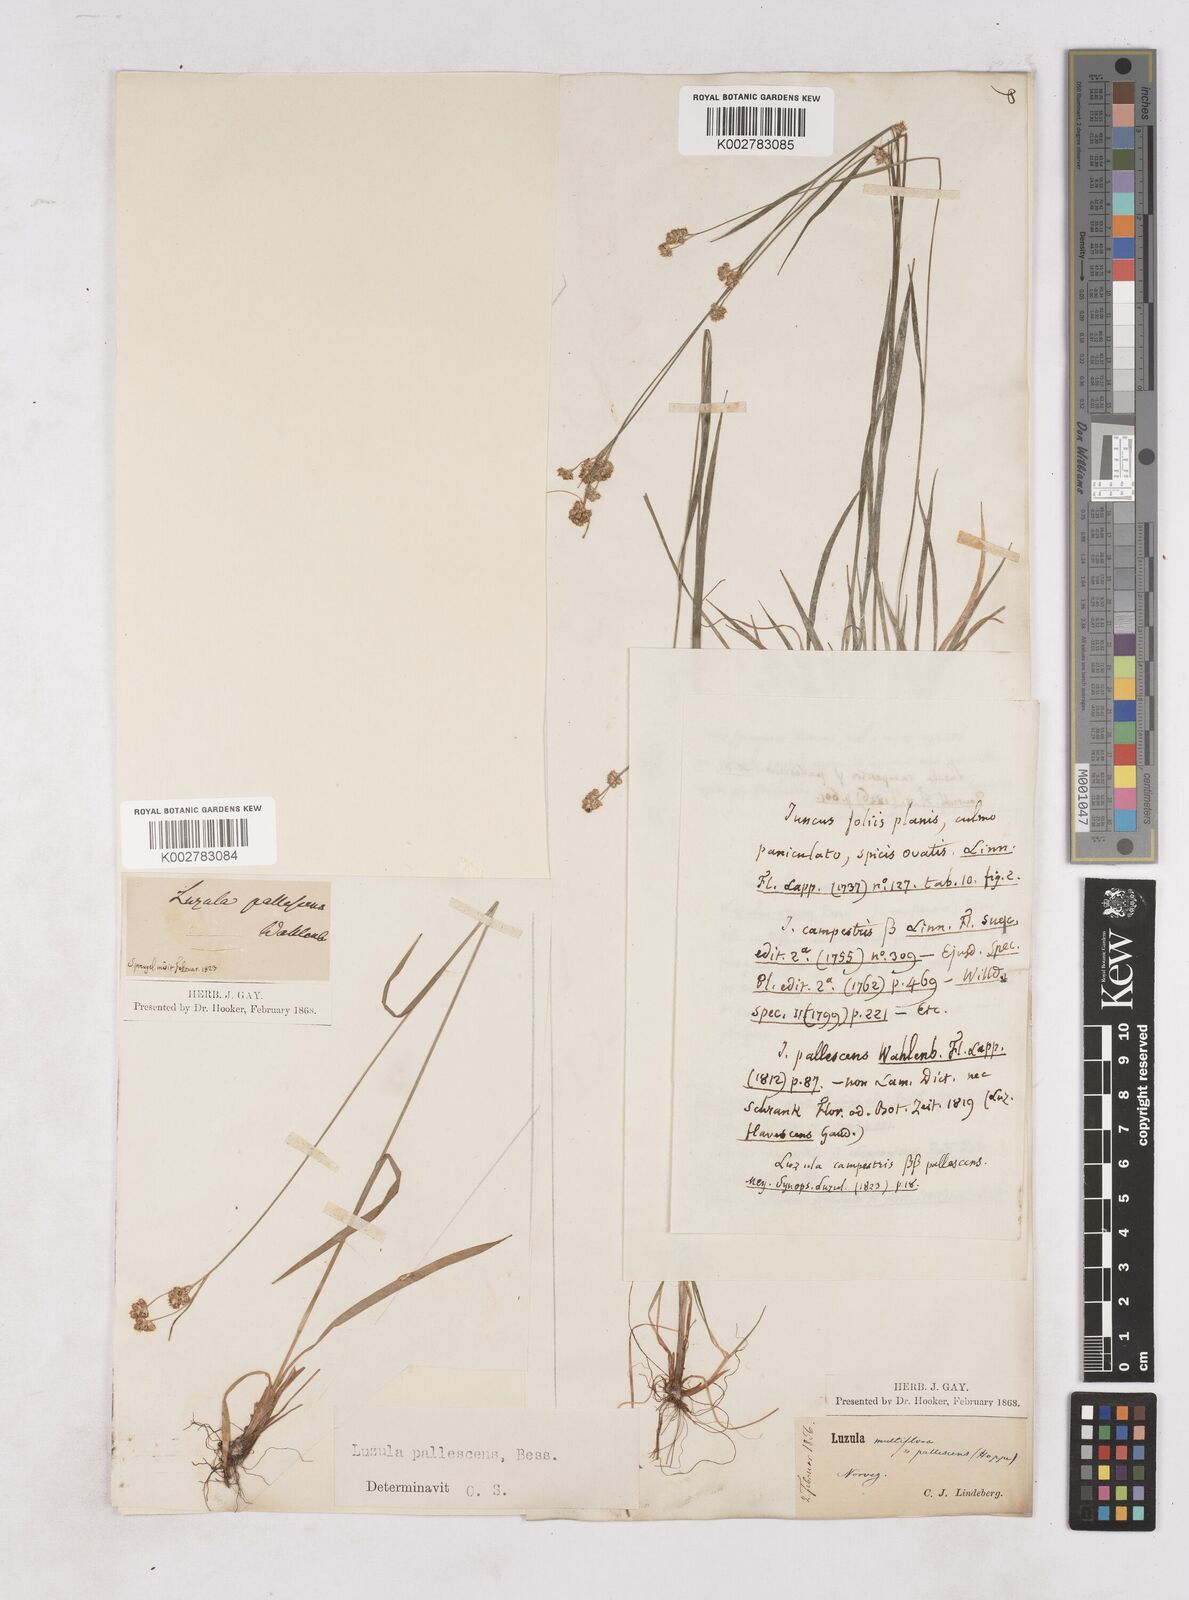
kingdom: Plantae
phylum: Tracheophyta
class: Liliopsida
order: Poales
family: Juncaceae
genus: Luzula
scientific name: Luzula pallescens
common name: Fen wood-rush
